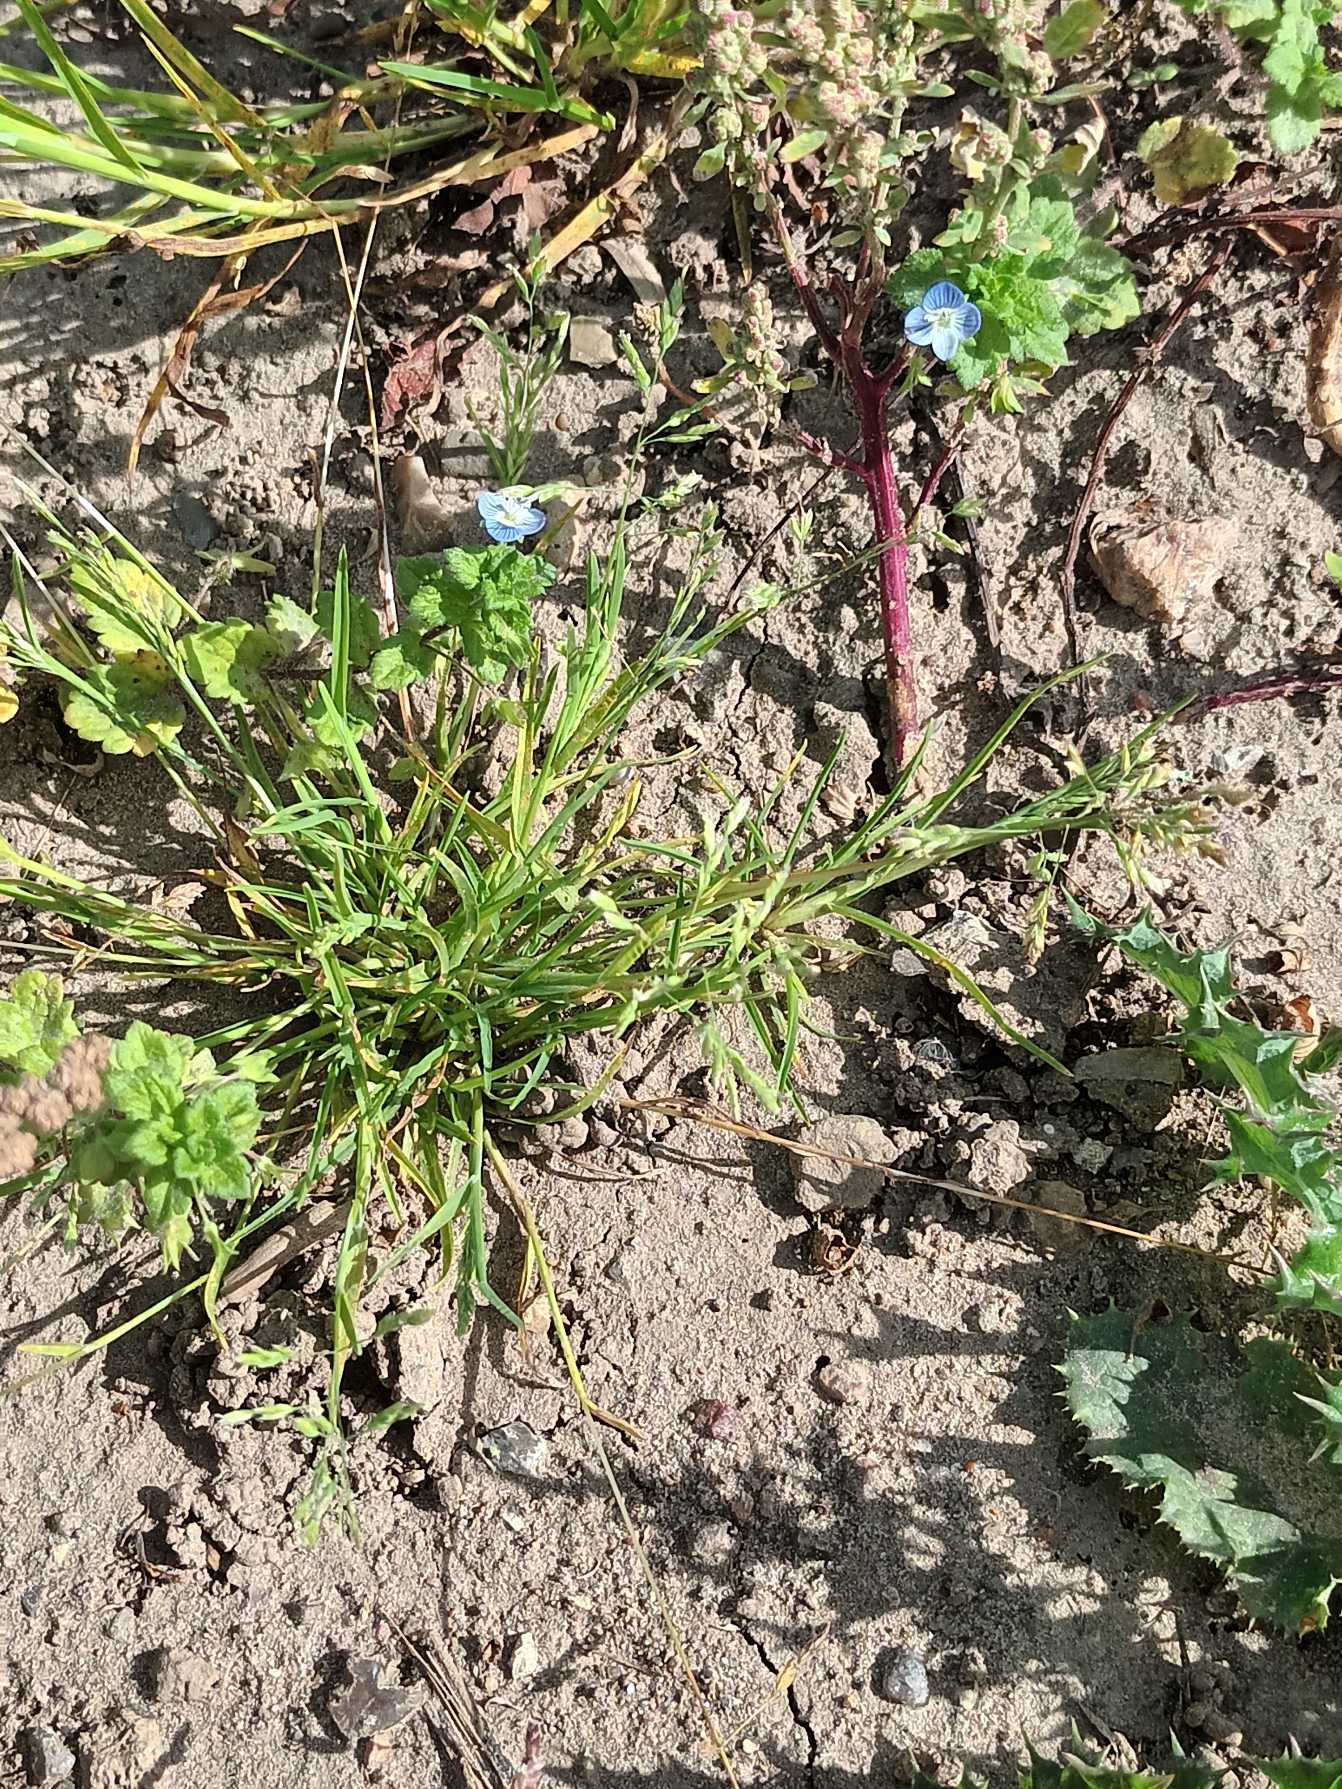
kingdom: Plantae
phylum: Tracheophyta
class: Liliopsida
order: Poales
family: Poaceae
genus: Poa
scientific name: Poa annua
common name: Enårig rapgræs
